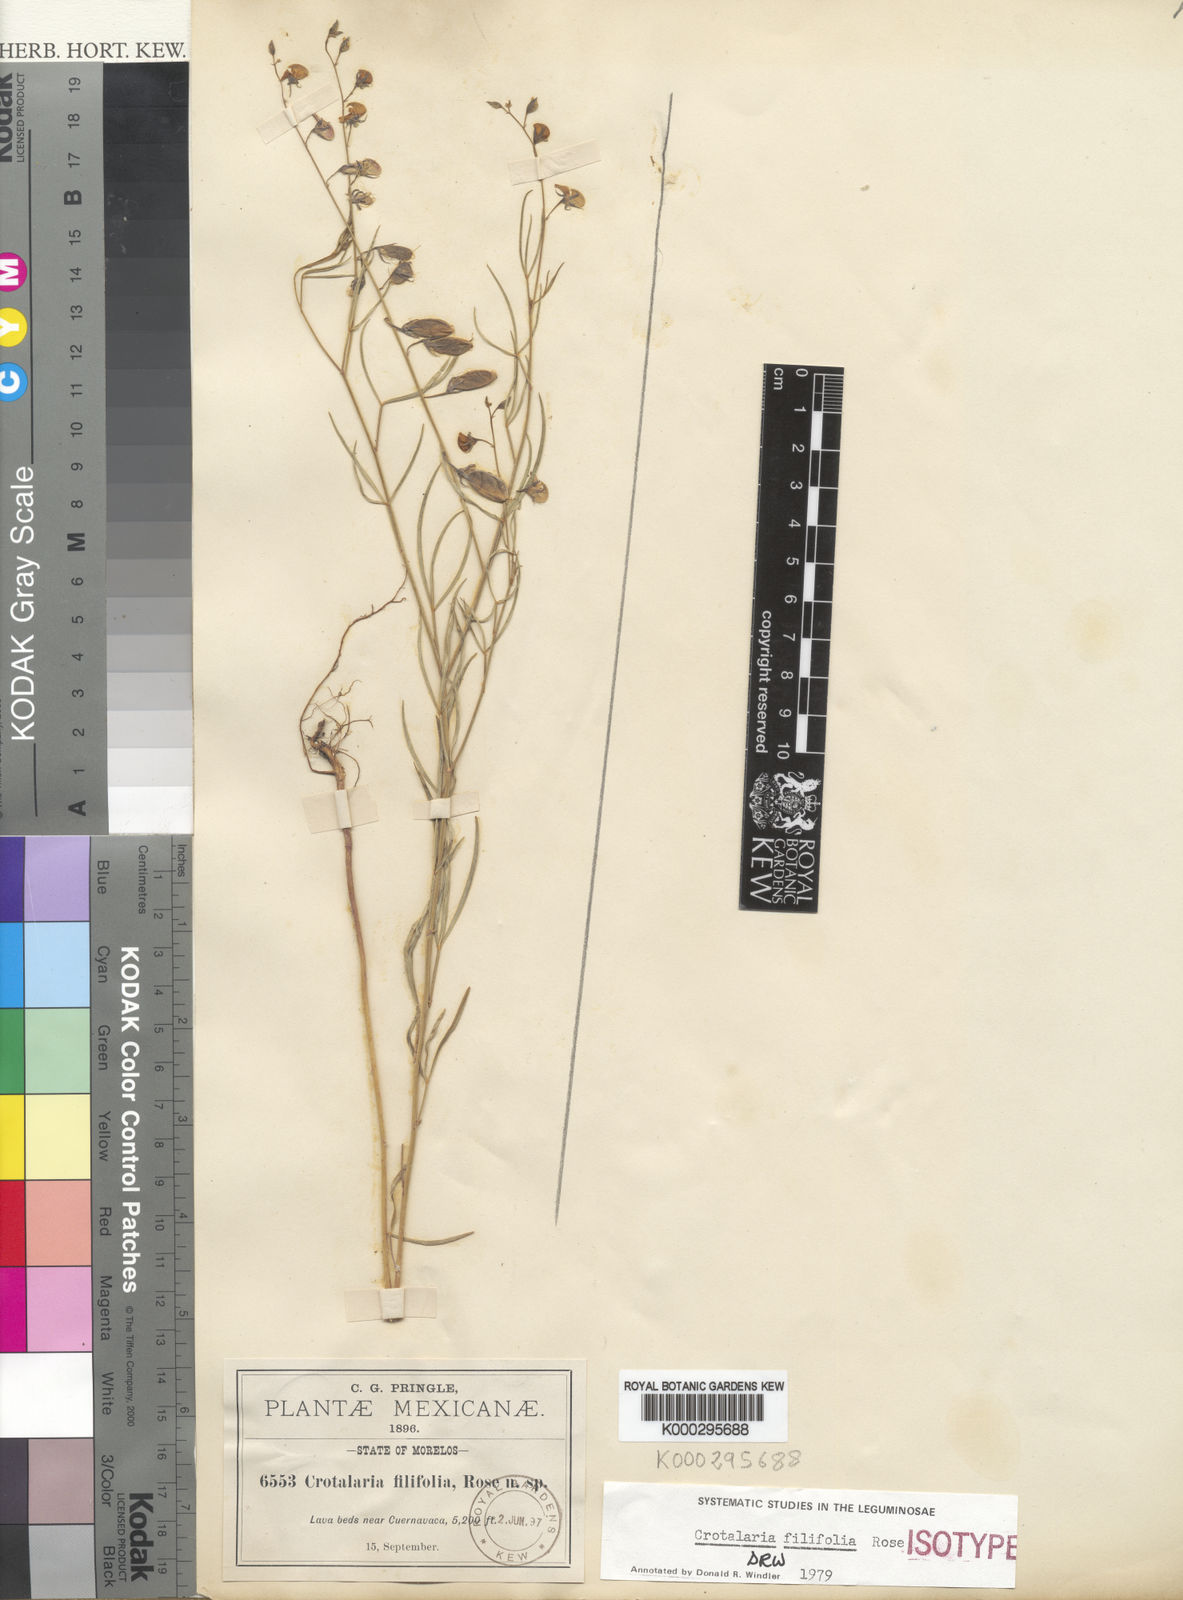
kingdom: Plantae
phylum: Tracheophyta
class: Magnoliopsida
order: Fabales
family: Fabaceae
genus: Crotalaria
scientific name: Crotalaria filifolia
